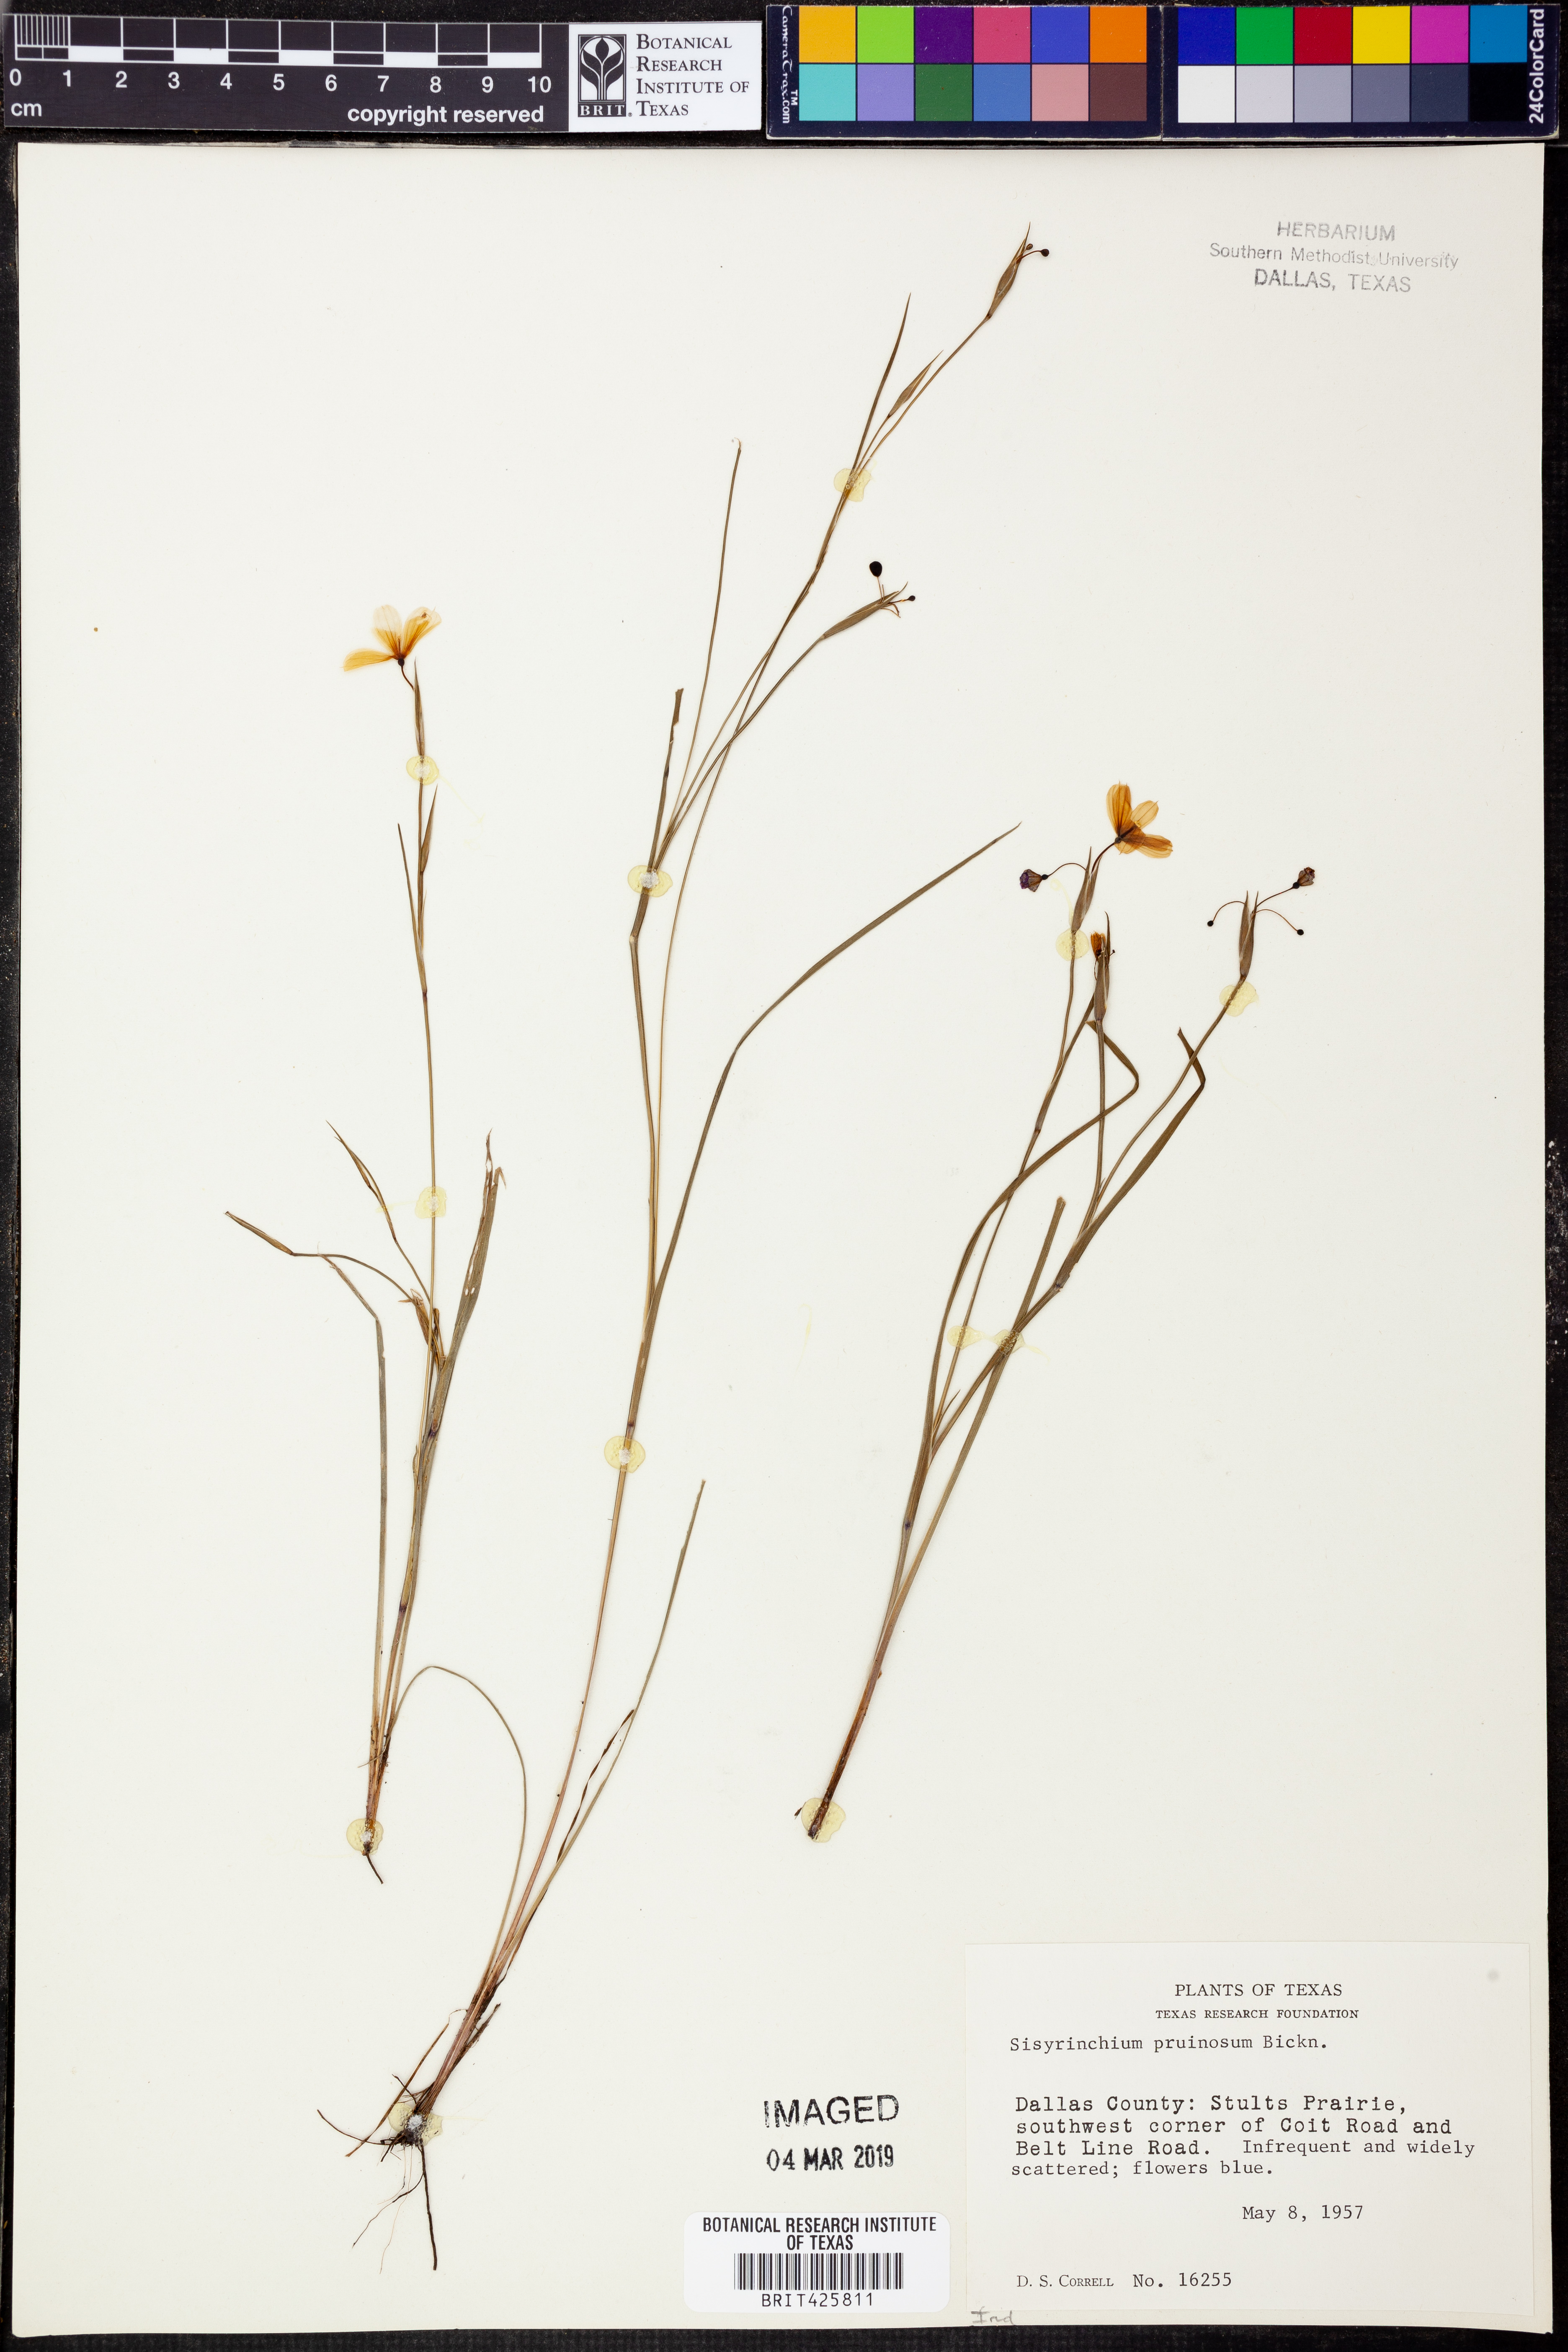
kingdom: Plantae
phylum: Tracheophyta
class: Liliopsida
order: Asparagales
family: Iridaceae
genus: Sisyrinchium
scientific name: Sisyrinchium pruinosum
